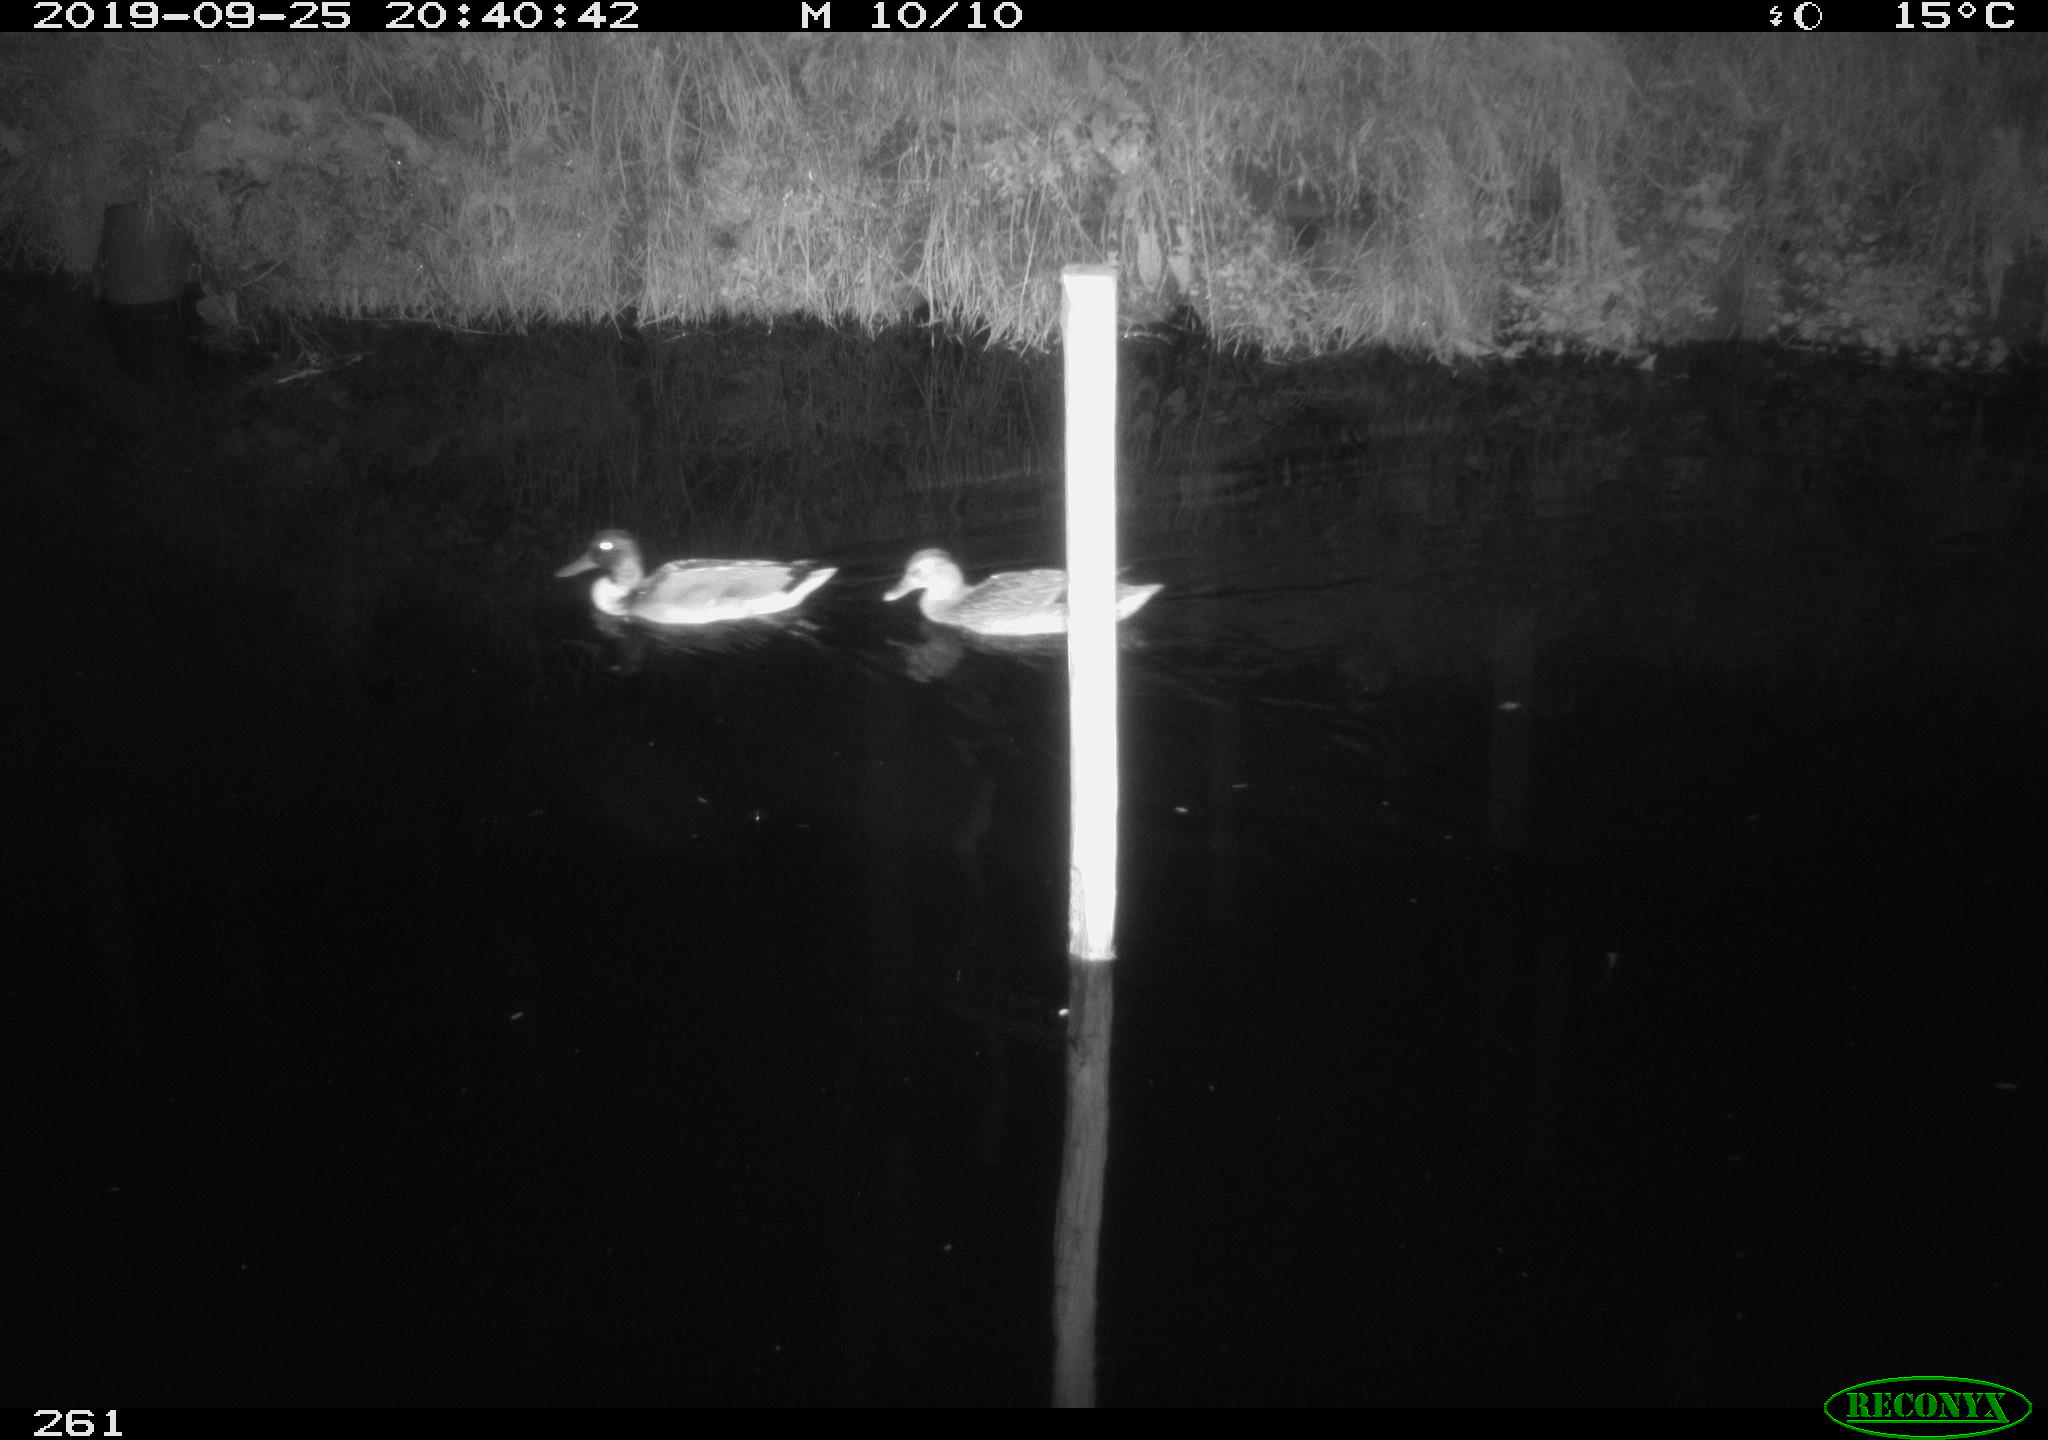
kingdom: Animalia
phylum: Chordata
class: Aves
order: Anseriformes
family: Anatidae
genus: Anas
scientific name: Anas platyrhynchos
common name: Mallard
